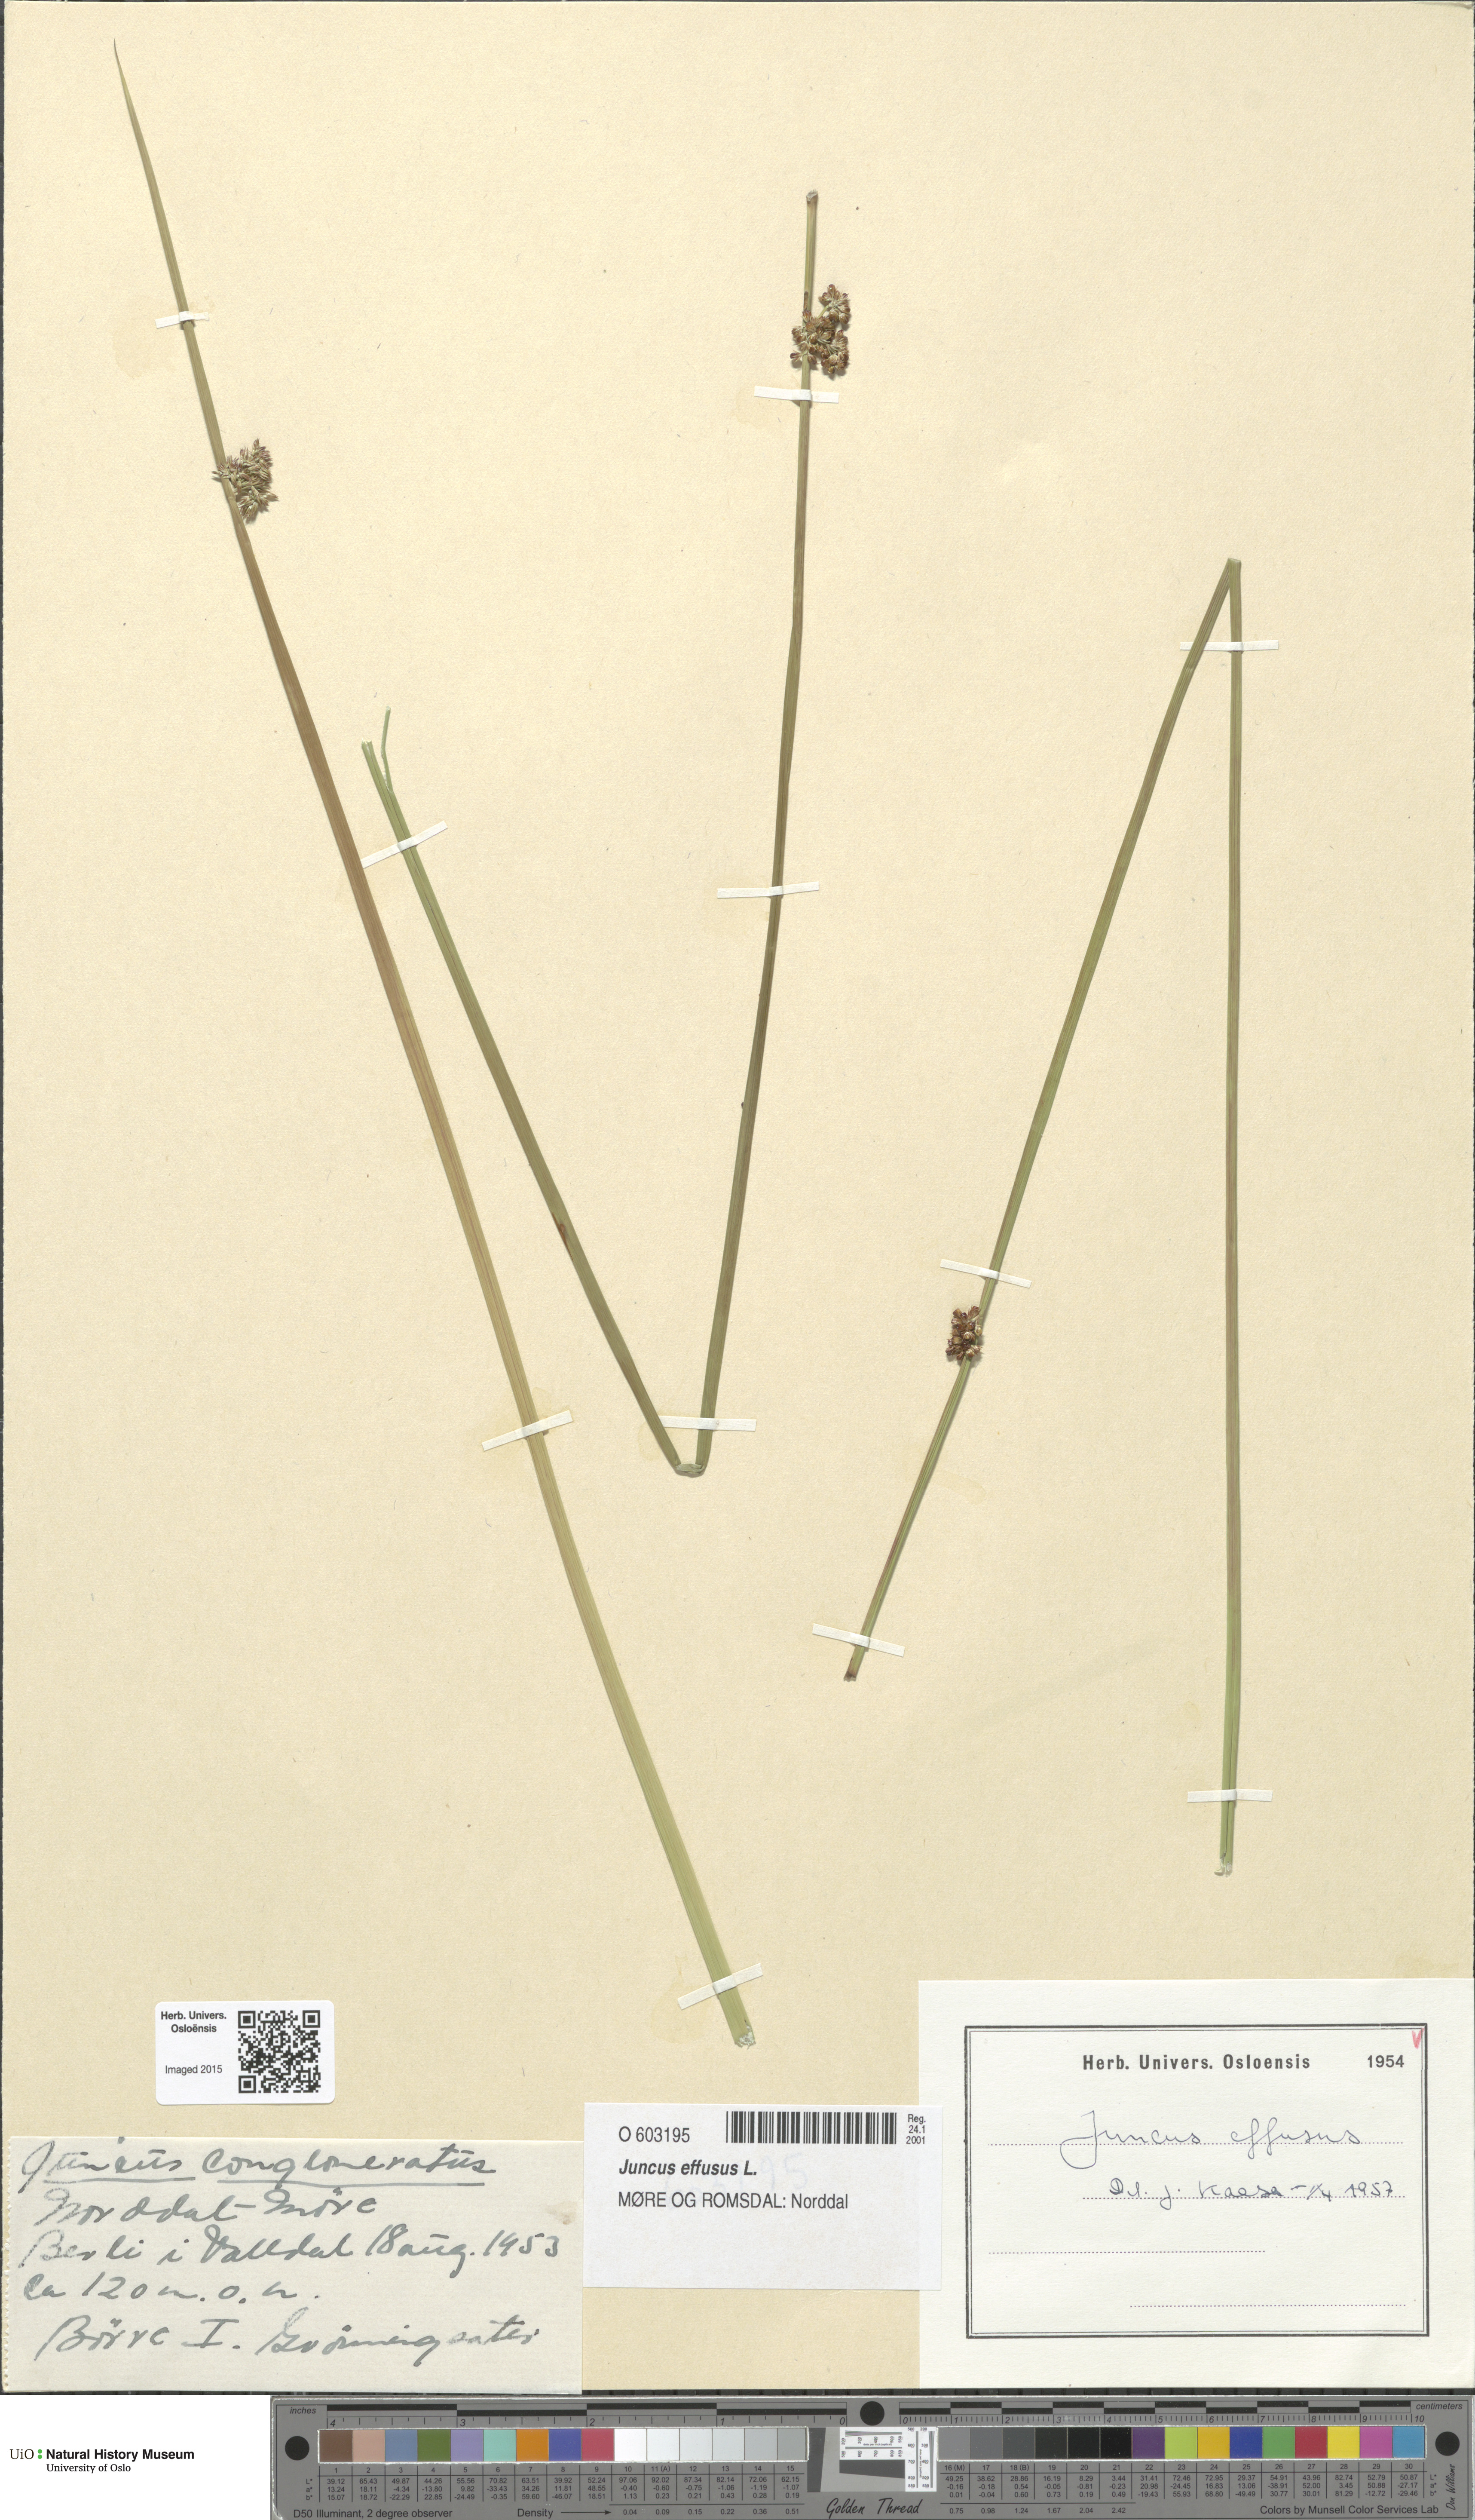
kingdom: Plantae
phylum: Tracheophyta
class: Liliopsida
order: Poales
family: Juncaceae
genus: Juncus
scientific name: Juncus effusus
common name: Soft rush
